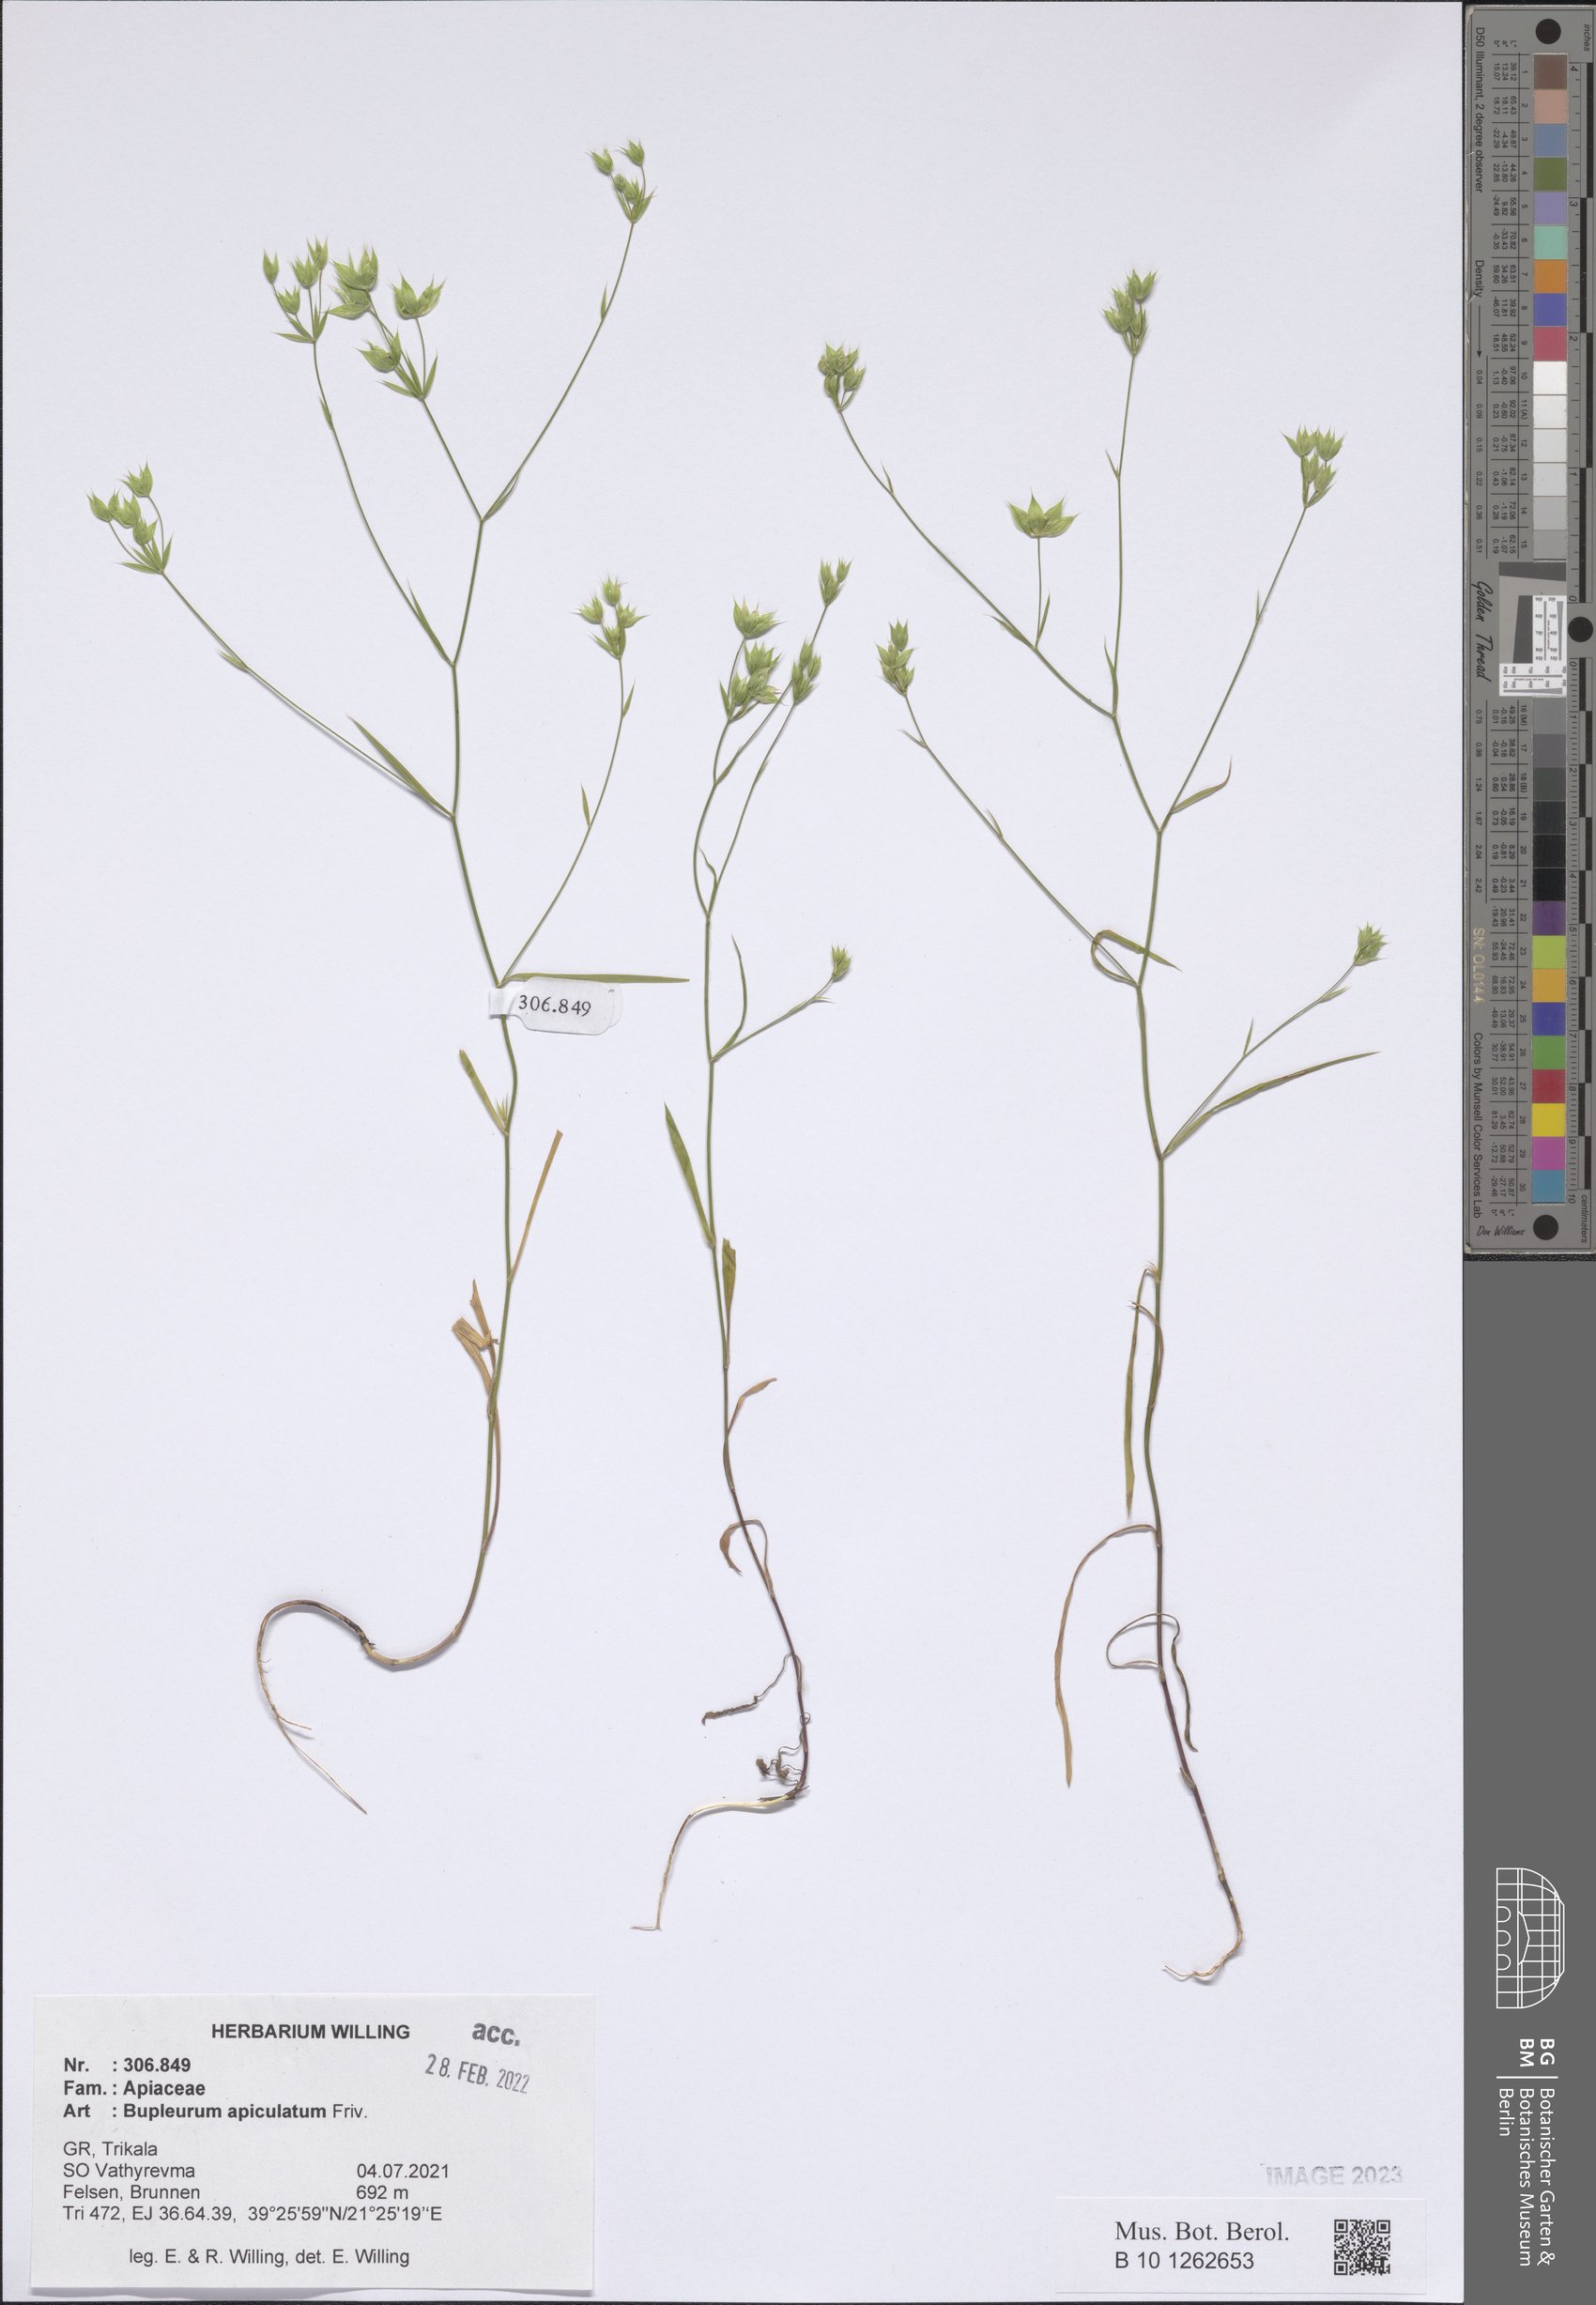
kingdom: Plantae
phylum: Tracheophyta
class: Magnoliopsida
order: Apiales
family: Apiaceae
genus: Bupleurum
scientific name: Bupleurum apiculatum
